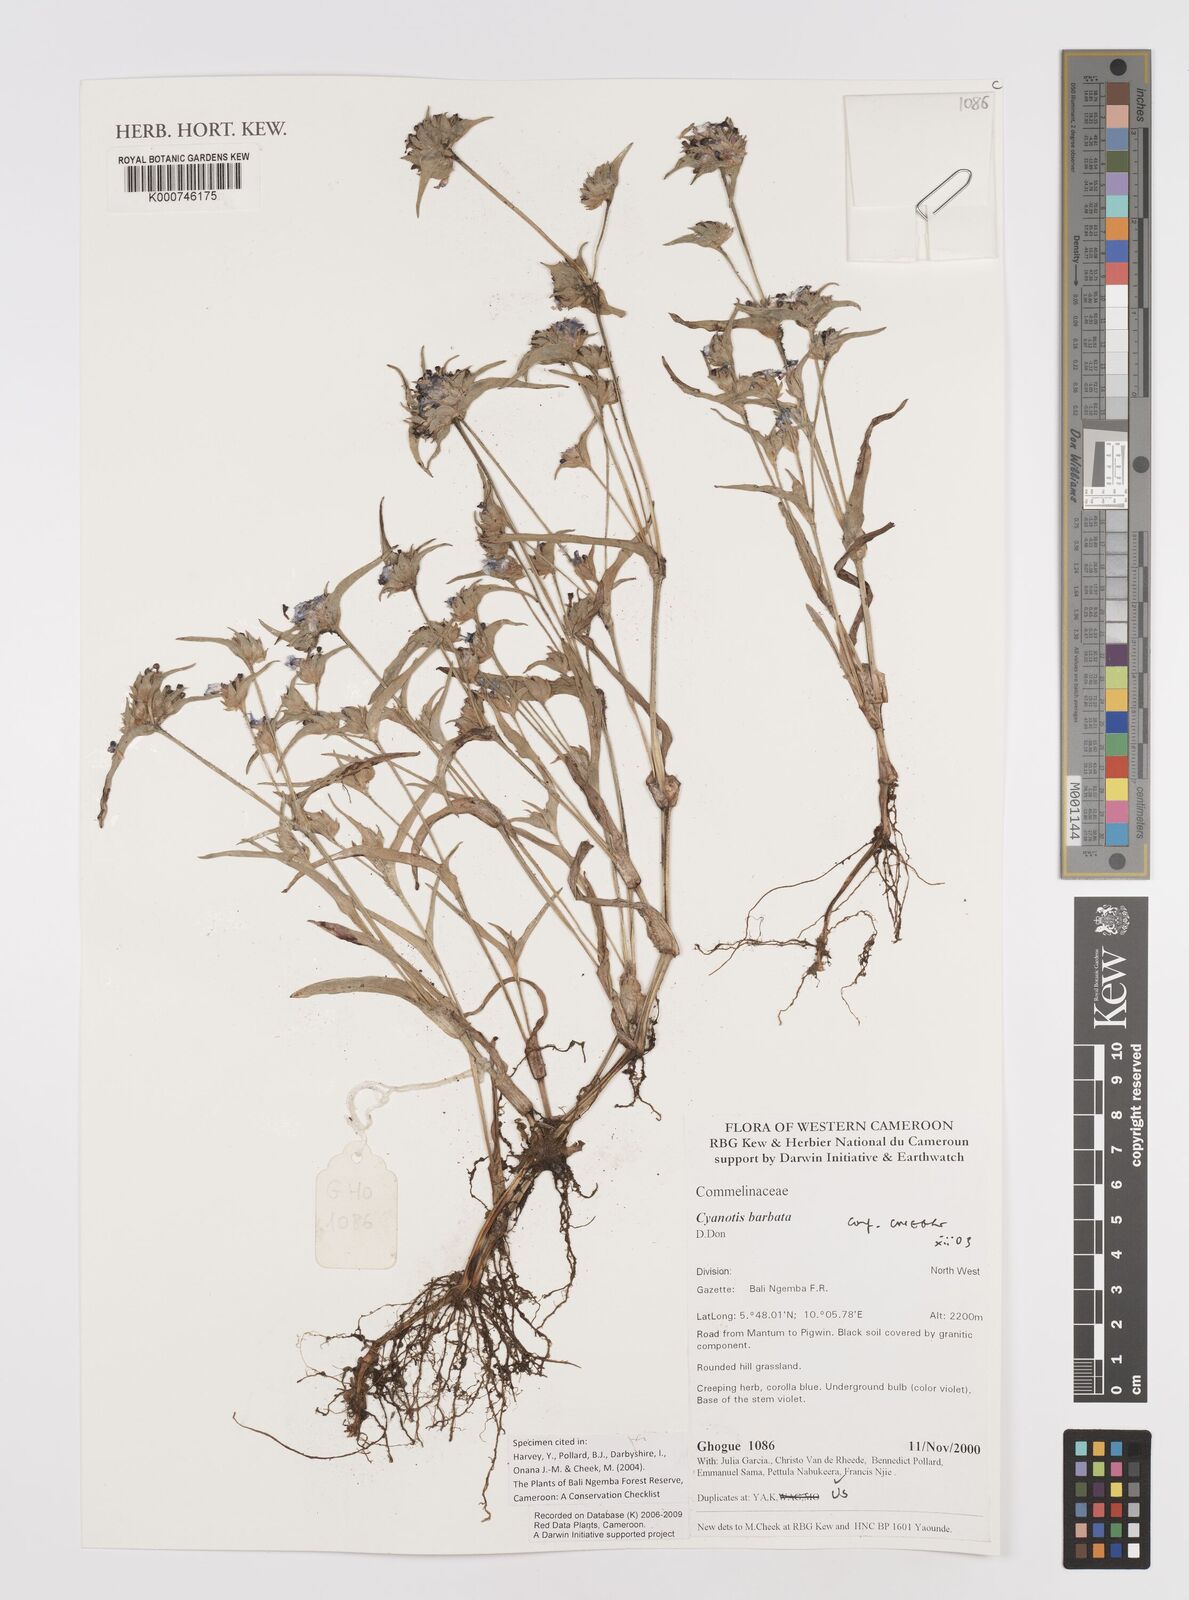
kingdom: Plantae
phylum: Tracheophyta
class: Liliopsida
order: Commelinales
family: Commelinaceae
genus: Cyanotis
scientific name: Cyanotis vaga
